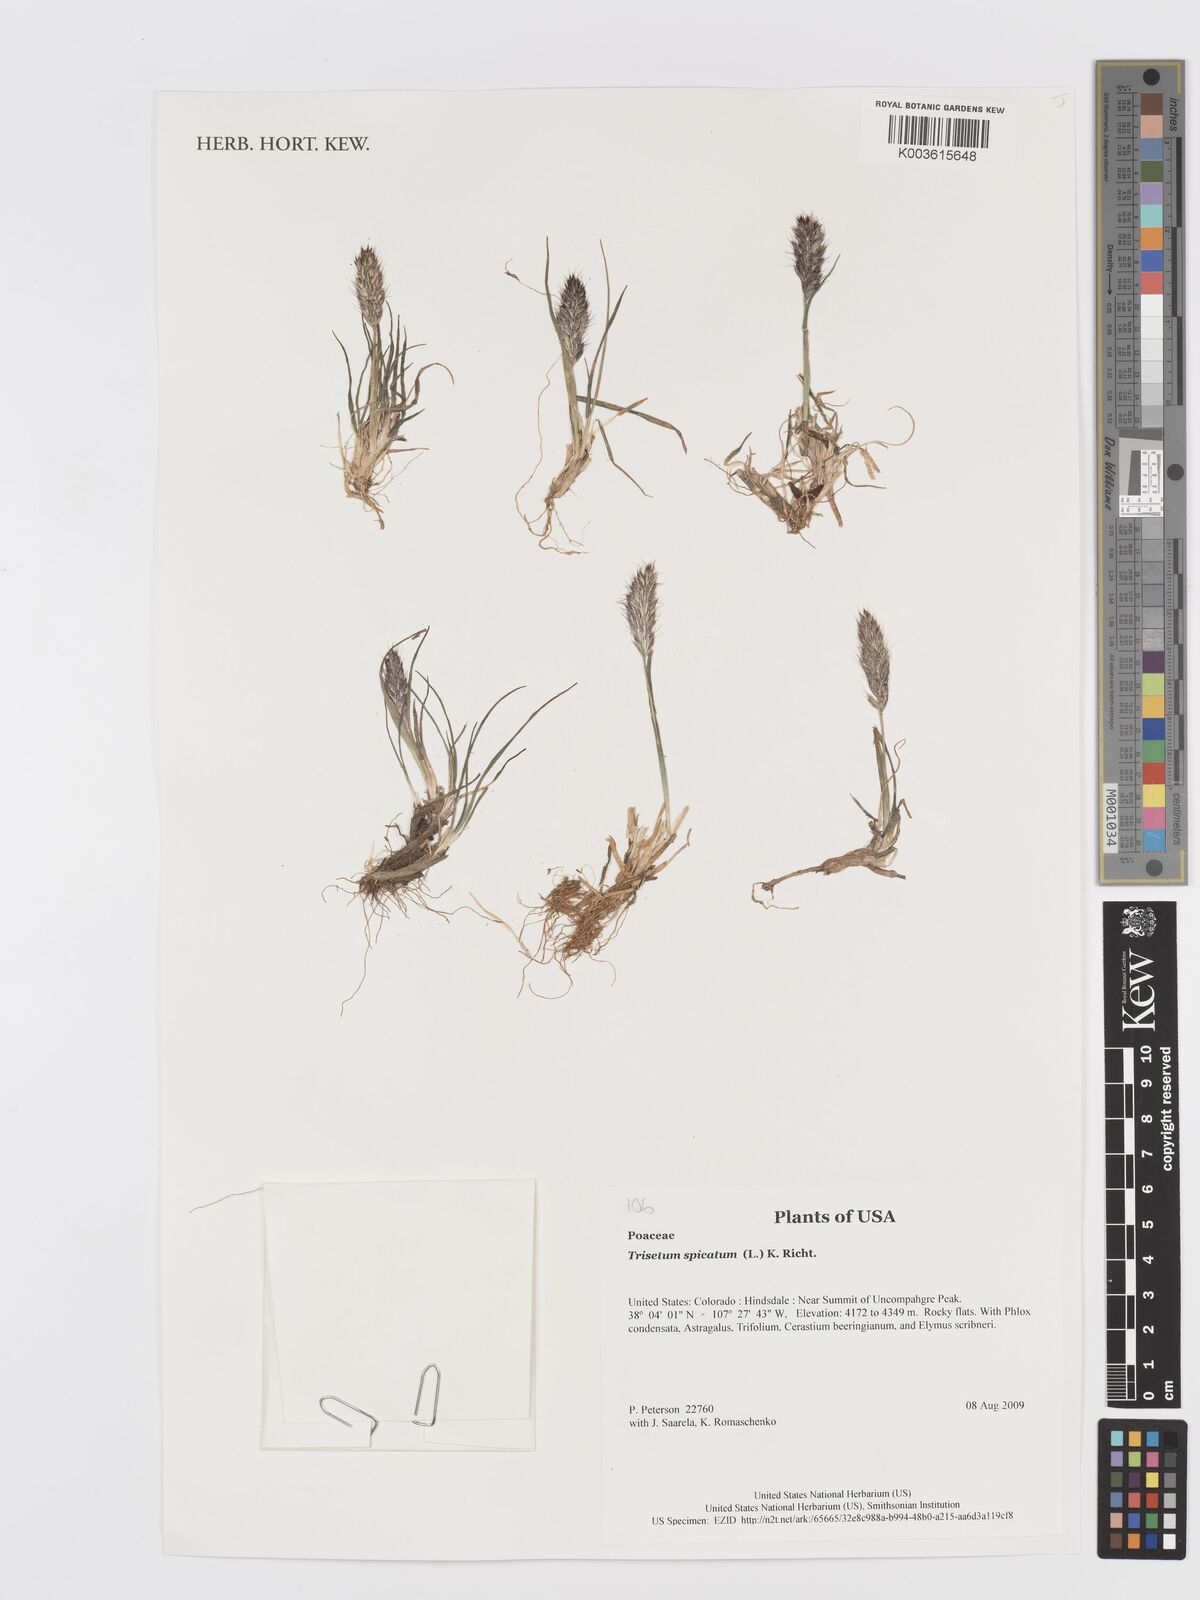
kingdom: Plantae
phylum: Tracheophyta
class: Liliopsida
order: Poales
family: Poaceae
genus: Koeleria
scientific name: Koeleria spicata
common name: Mountain trisetum
